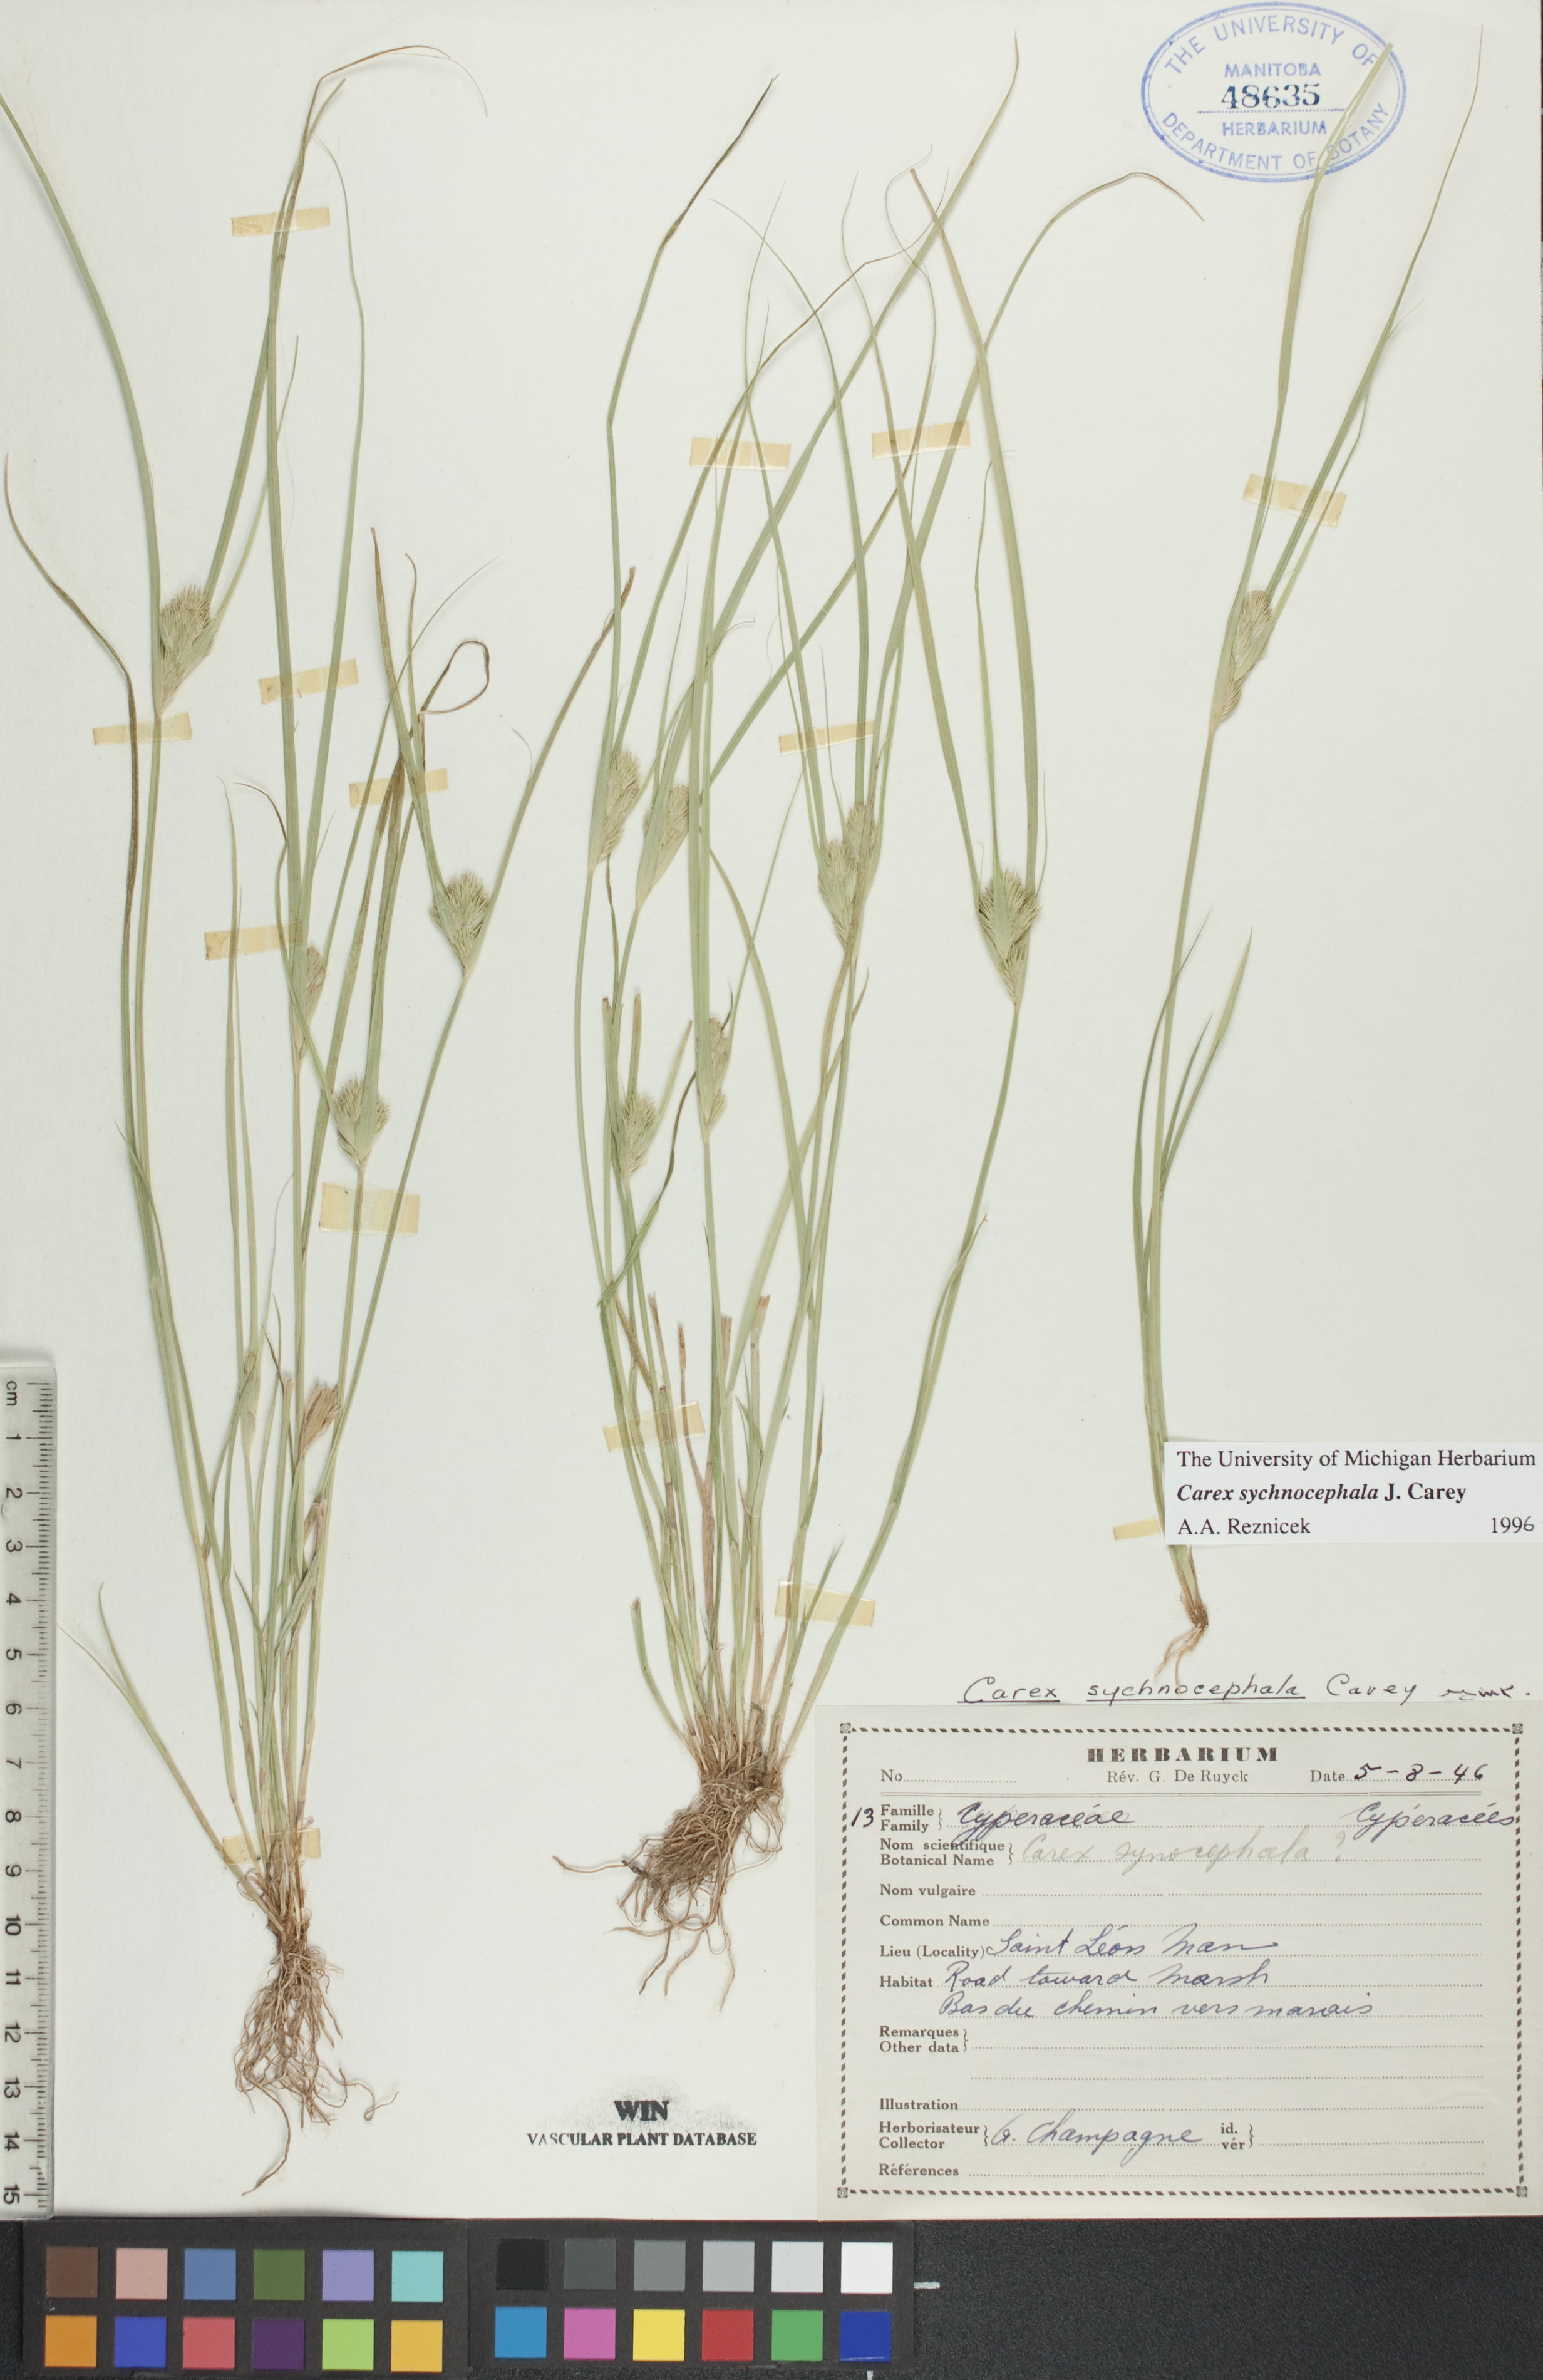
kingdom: Plantae
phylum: Tracheophyta
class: Liliopsida
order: Poales
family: Cyperaceae
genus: Carex
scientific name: Carex sychnocephala
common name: Dense long-beaked sedge
